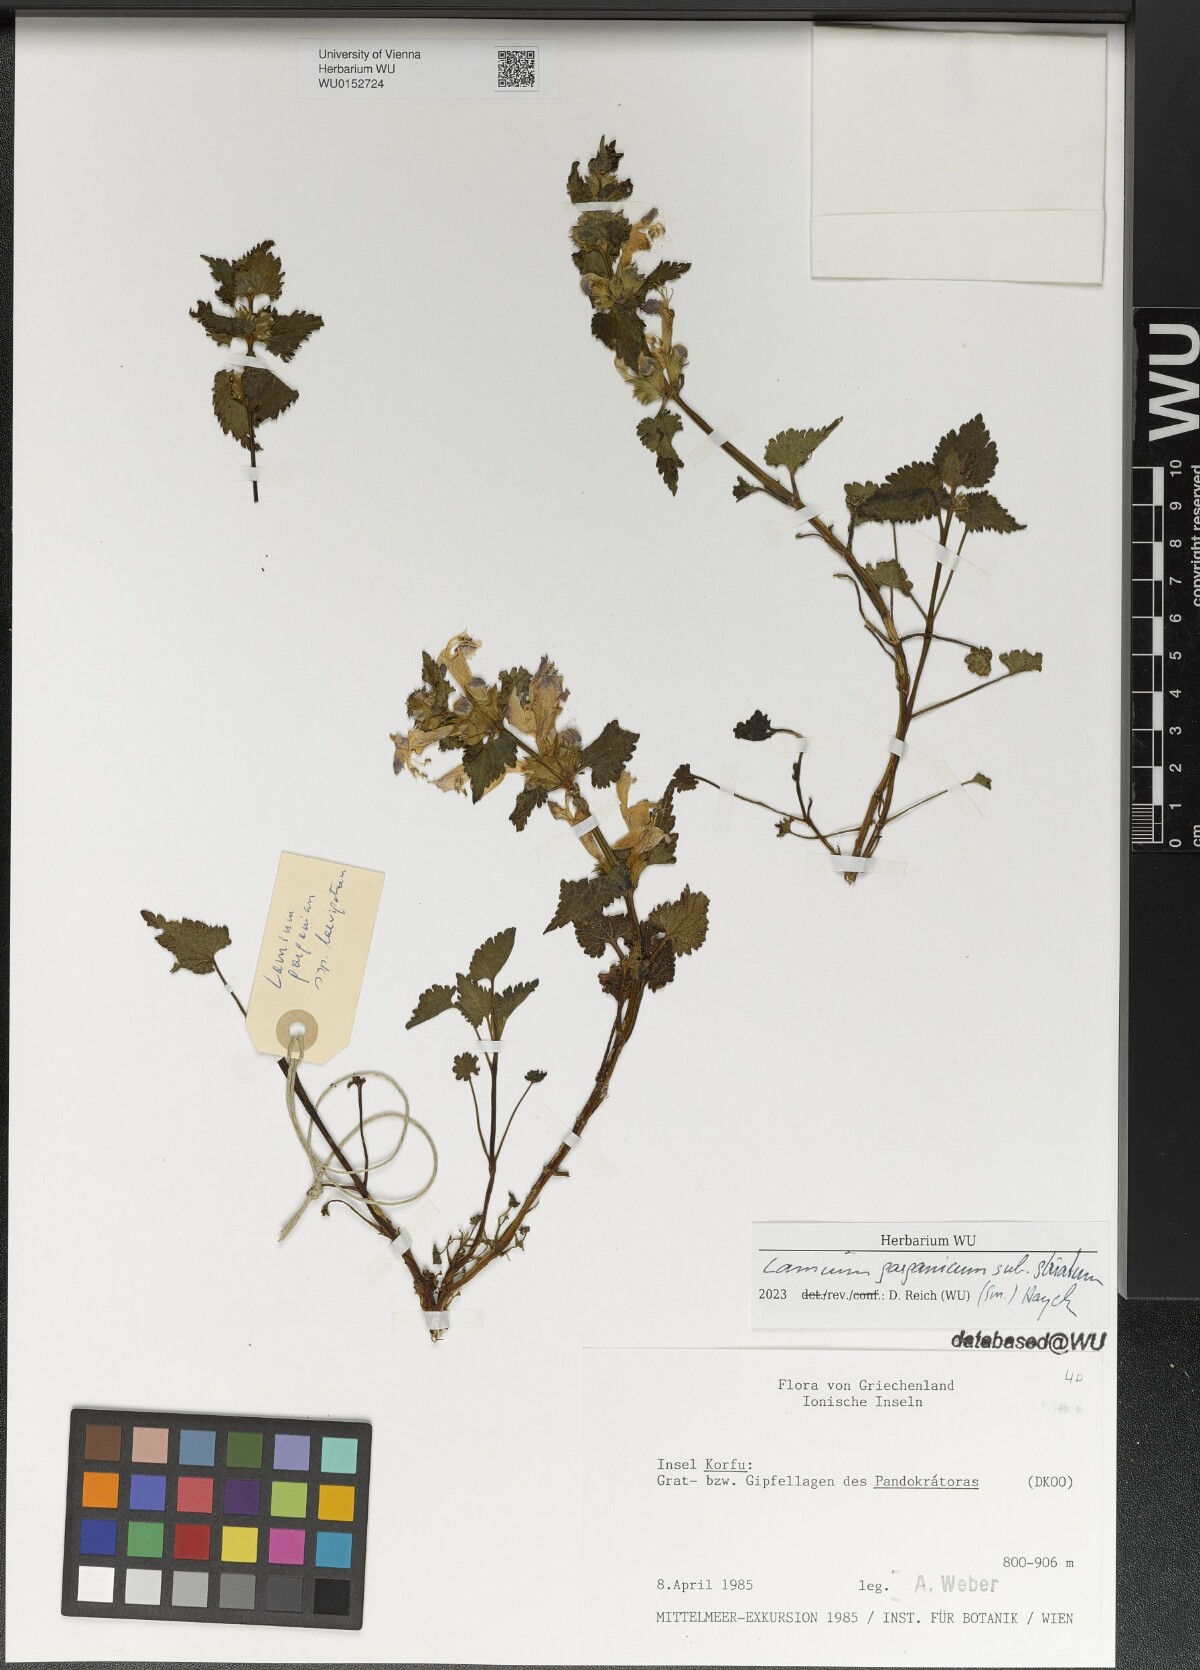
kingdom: Plantae
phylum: Tracheophyta
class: Magnoliopsida
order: Lamiales
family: Lamiaceae
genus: Lamium
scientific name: Lamium garganicum
